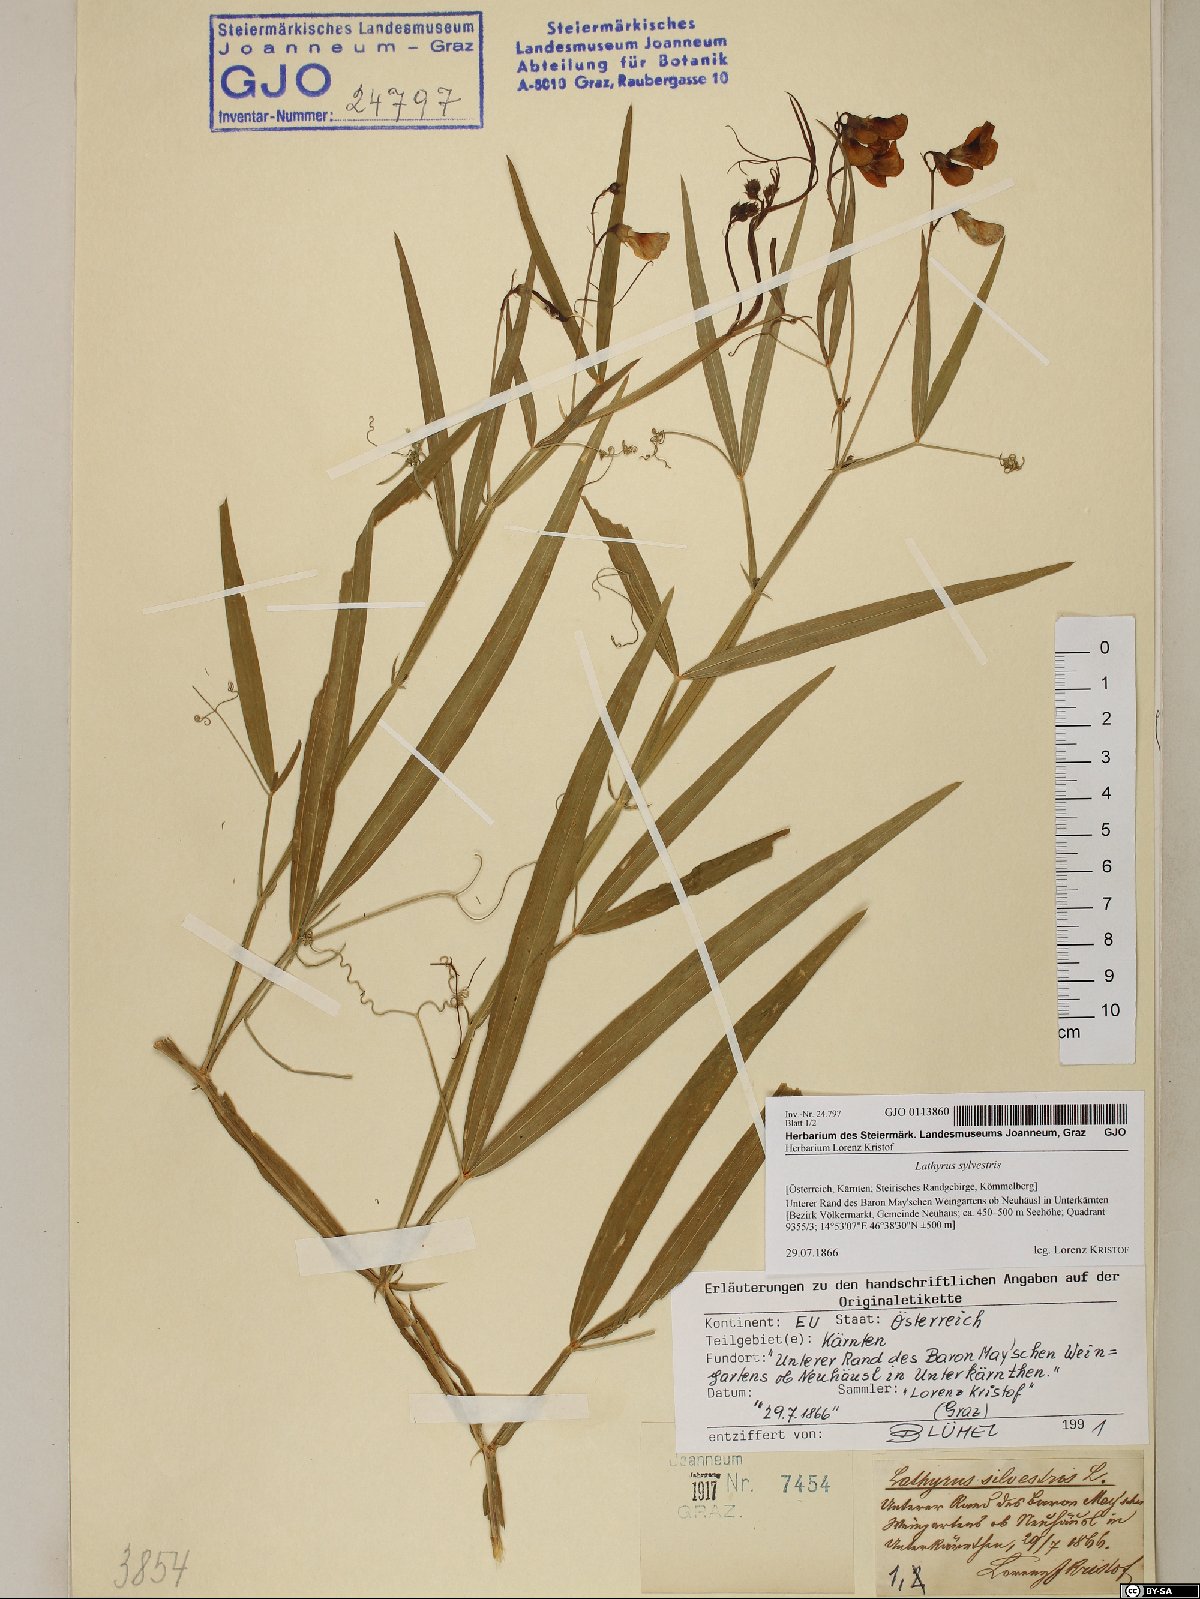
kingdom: Plantae
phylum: Tracheophyta
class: Magnoliopsida
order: Fabales
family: Fabaceae
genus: Lathyrus
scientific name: Lathyrus sylvestris
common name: Flat pea
